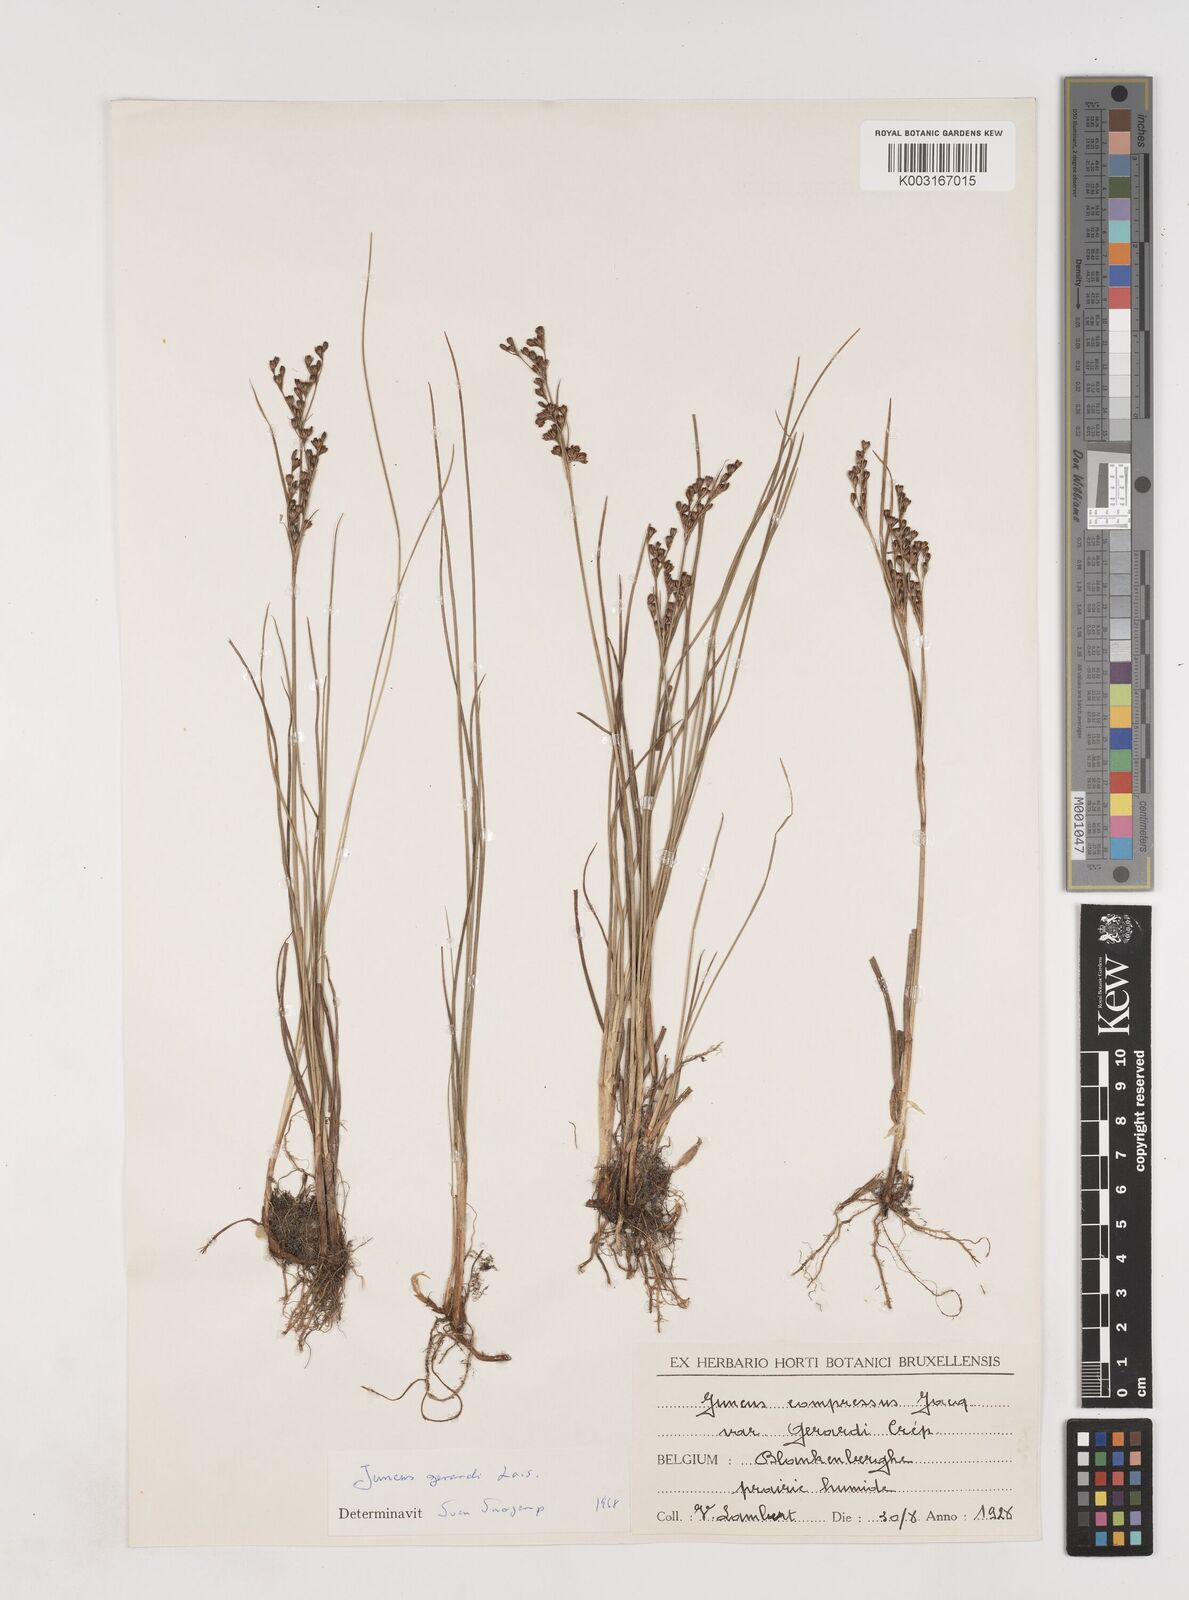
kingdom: Plantae
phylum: Tracheophyta
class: Liliopsida
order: Poales
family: Juncaceae
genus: Juncus
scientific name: Juncus gerardi
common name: Saltmarsh rush
